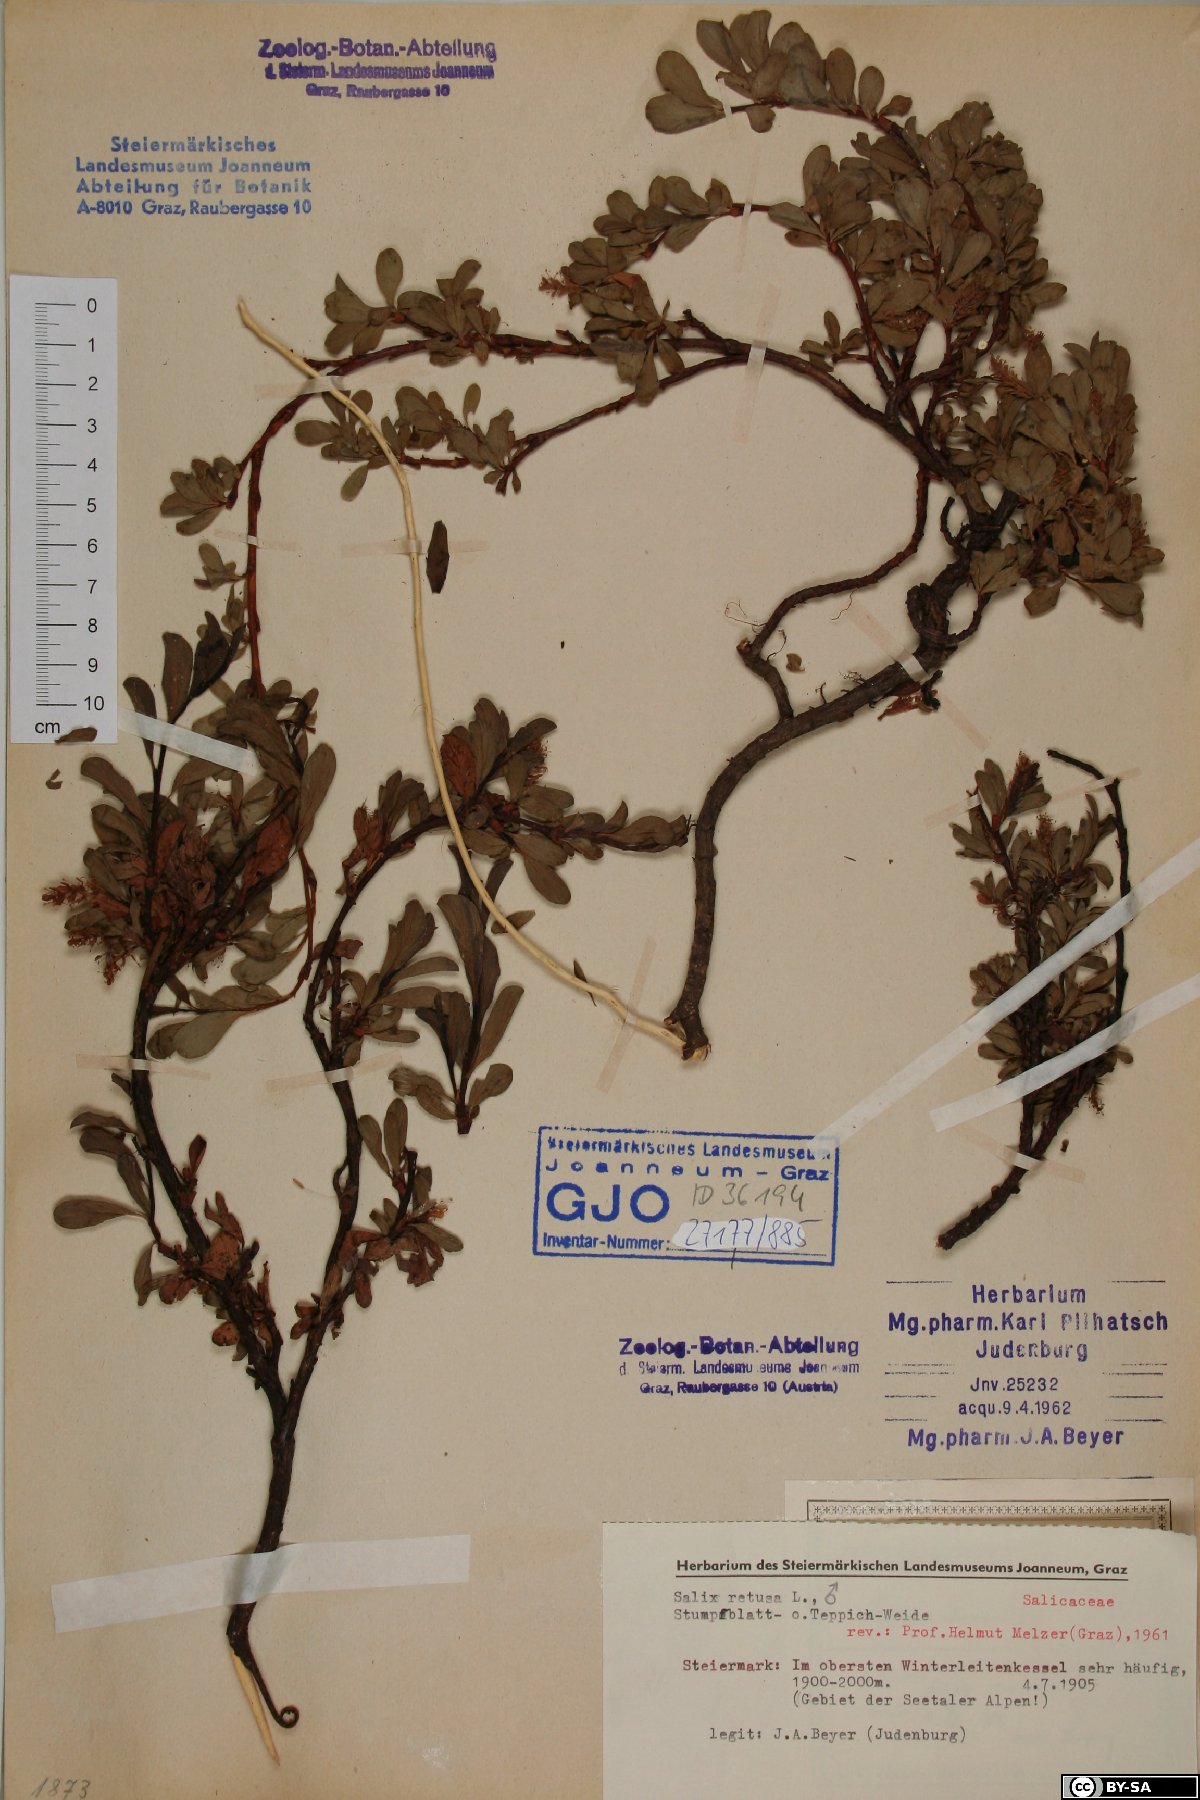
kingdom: Plantae
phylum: Tracheophyta
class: Magnoliopsida
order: Malpighiales
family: Salicaceae
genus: Salix
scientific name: Salix retusa
